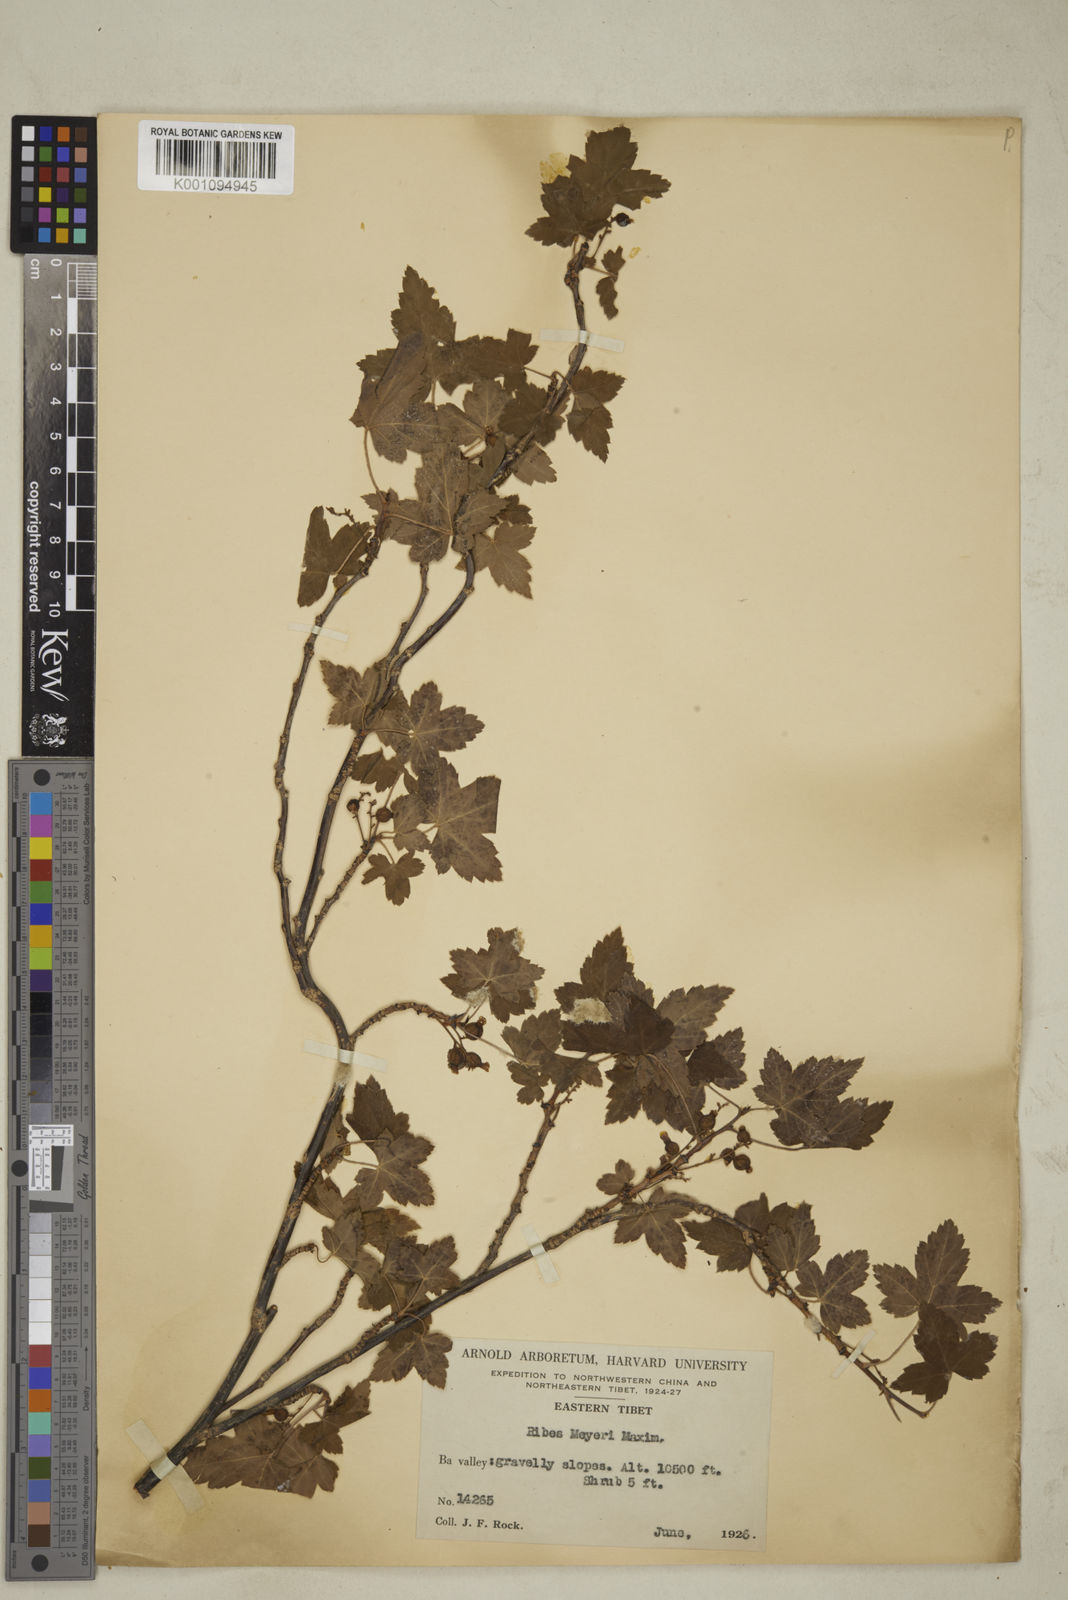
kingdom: Plantae
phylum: Tracheophyta
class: Magnoliopsida
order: Saxifragales
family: Grossulariaceae
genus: Ribes
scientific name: Ribes meyeri
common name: Meyer's currant
